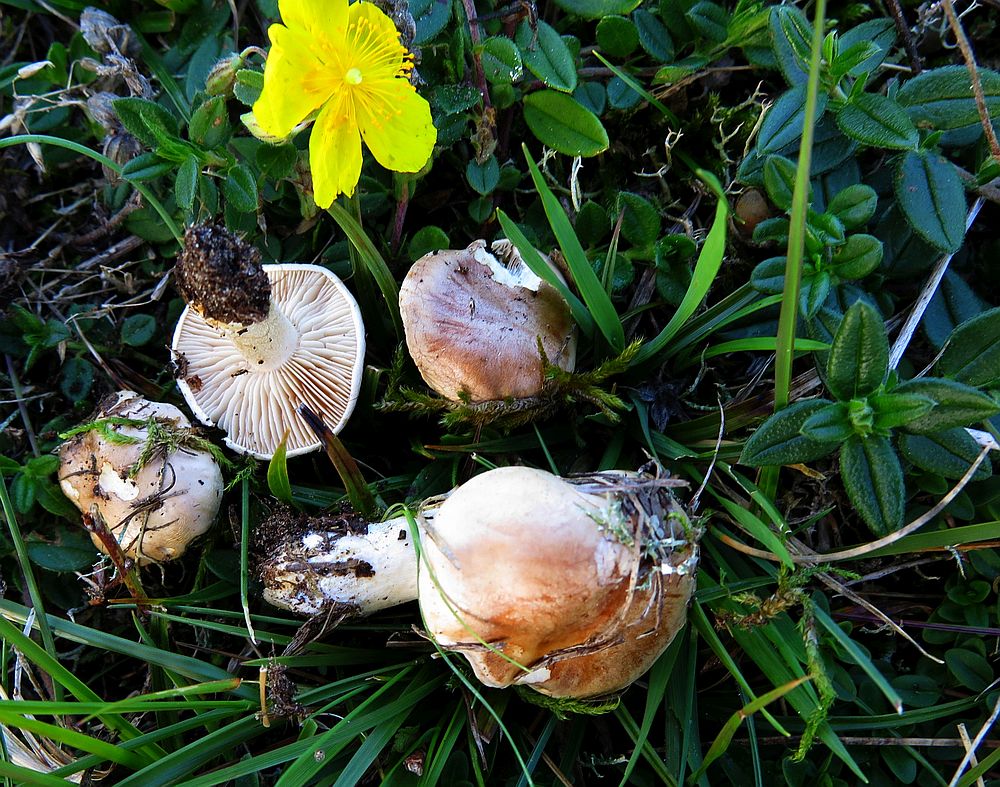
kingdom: Fungi
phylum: Basidiomycota
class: Agaricomycetes
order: Agaricales
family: Hymenogastraceae
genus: Hebeloma
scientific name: Hebeloma
